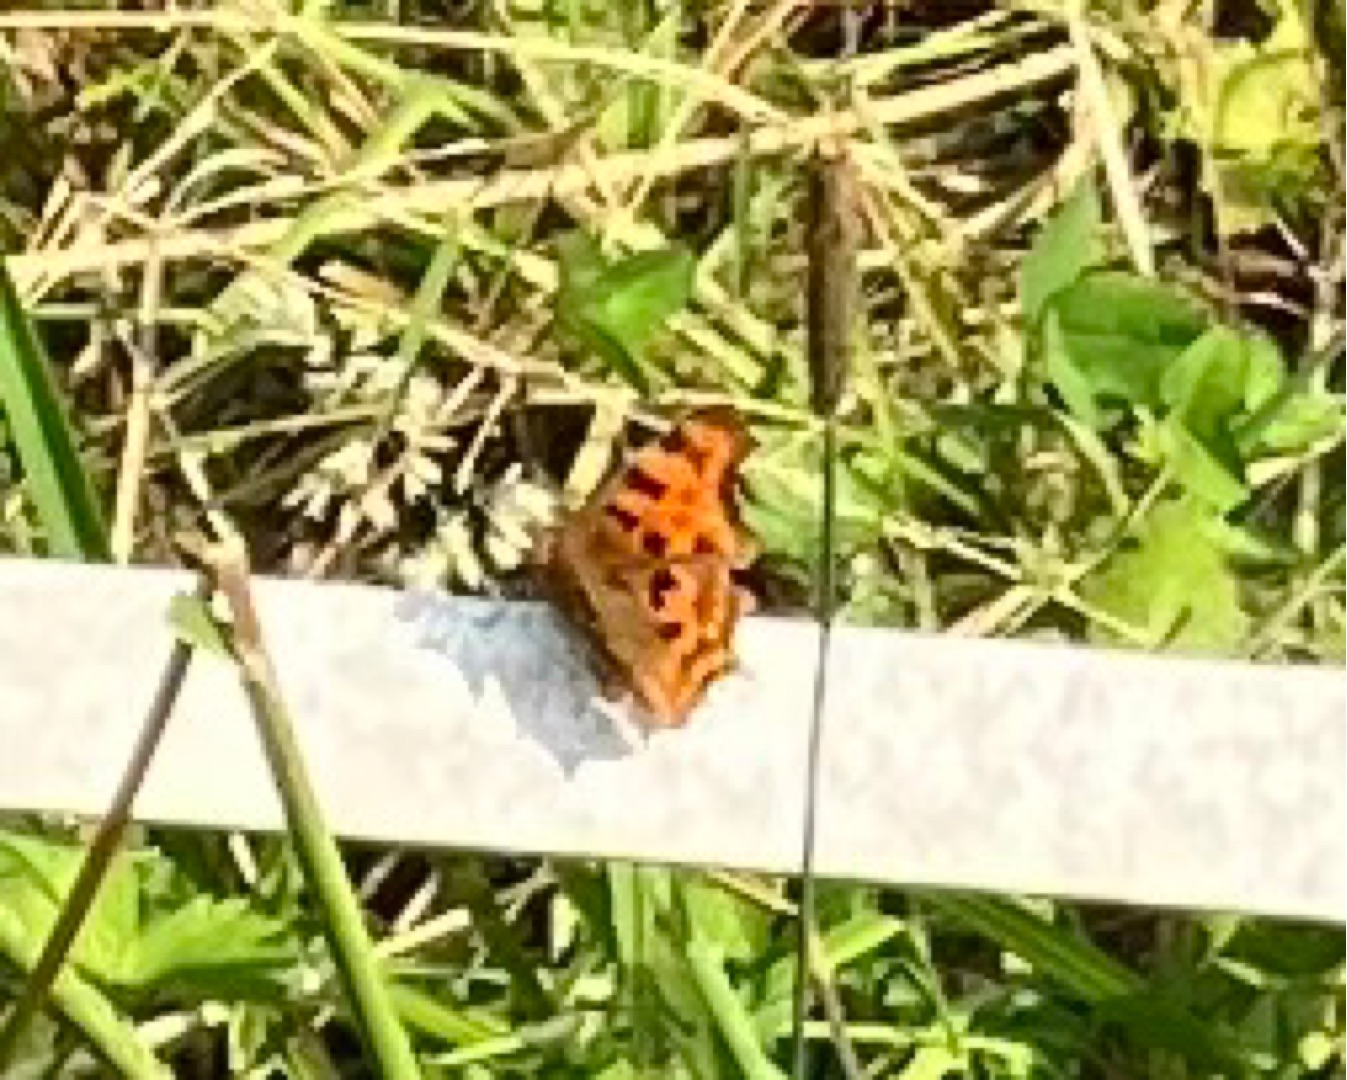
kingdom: Animalia
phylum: Arthropoda
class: Insecta
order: Lepidoptera
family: Nymphalidae
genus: Polygonia
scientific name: Polygonia c-album
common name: Det hvide C
